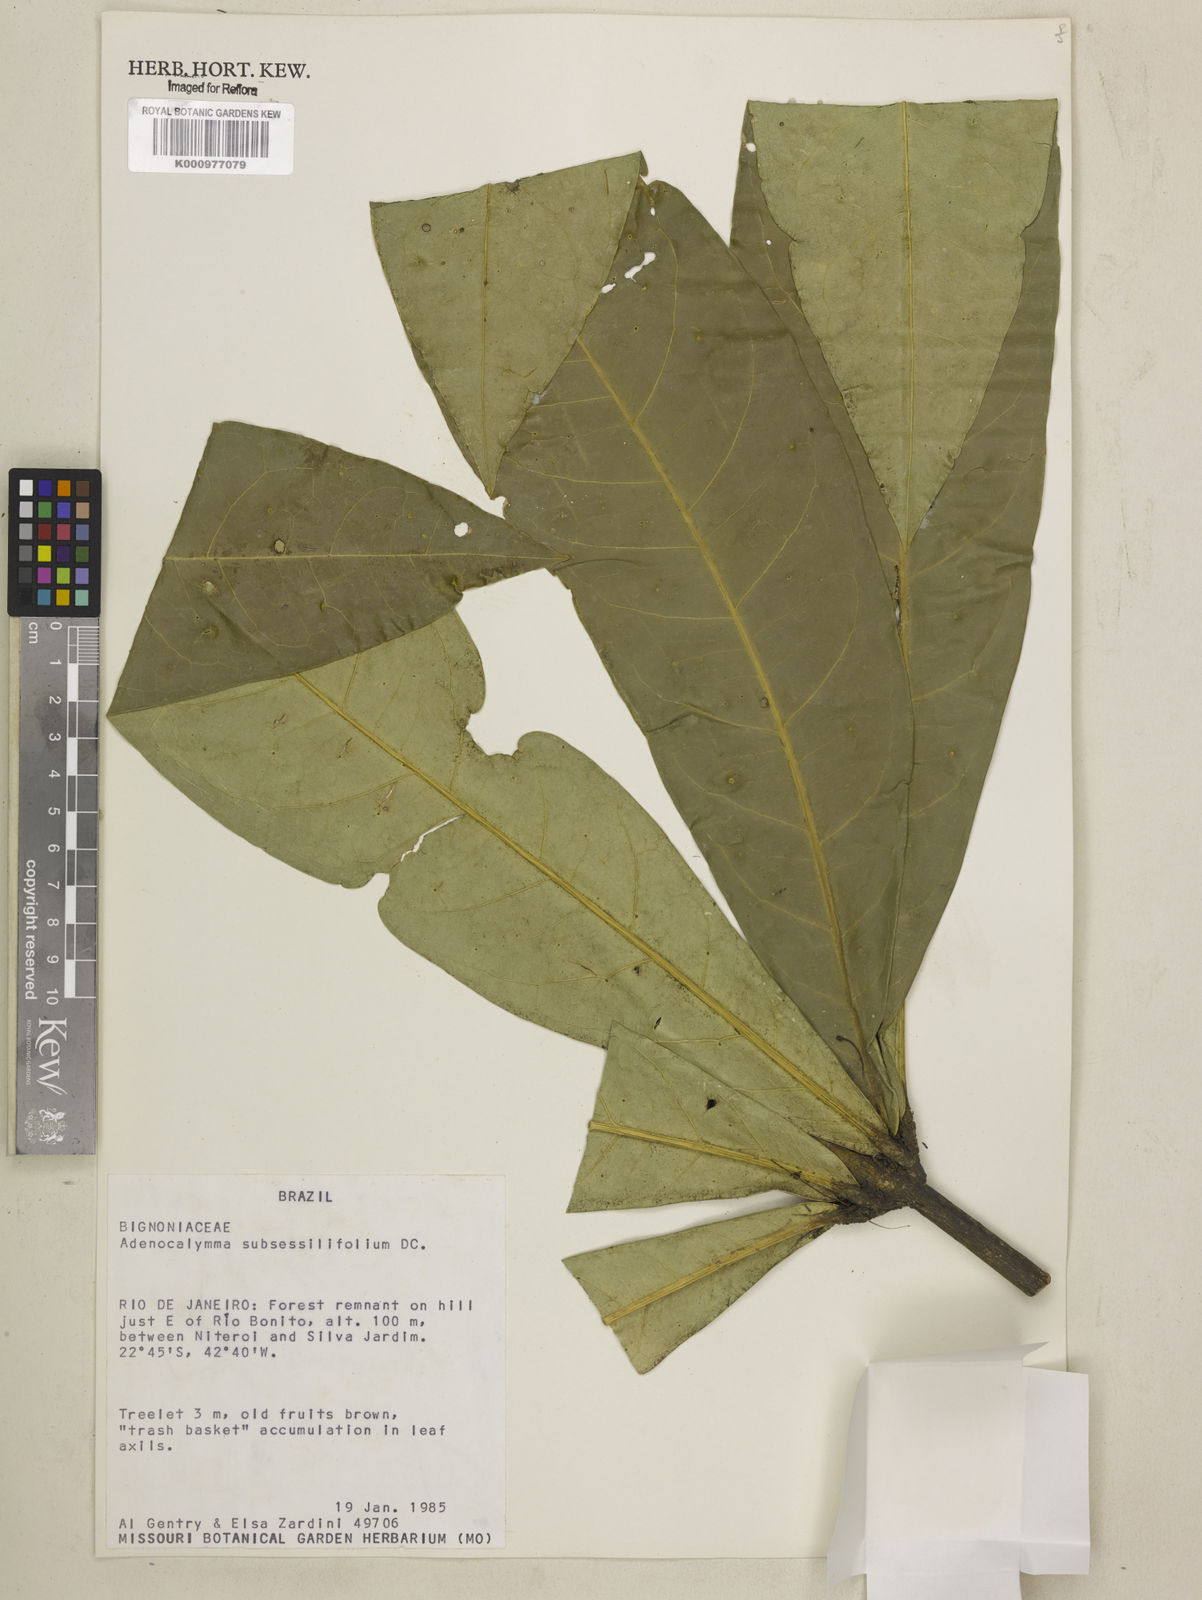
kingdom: Plantae
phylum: Tracheophyta
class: Magnoliopsida
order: Lamiales
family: Bignoniaceae
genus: Adenocalymma
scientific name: Adenocalymma subsessilifolium
